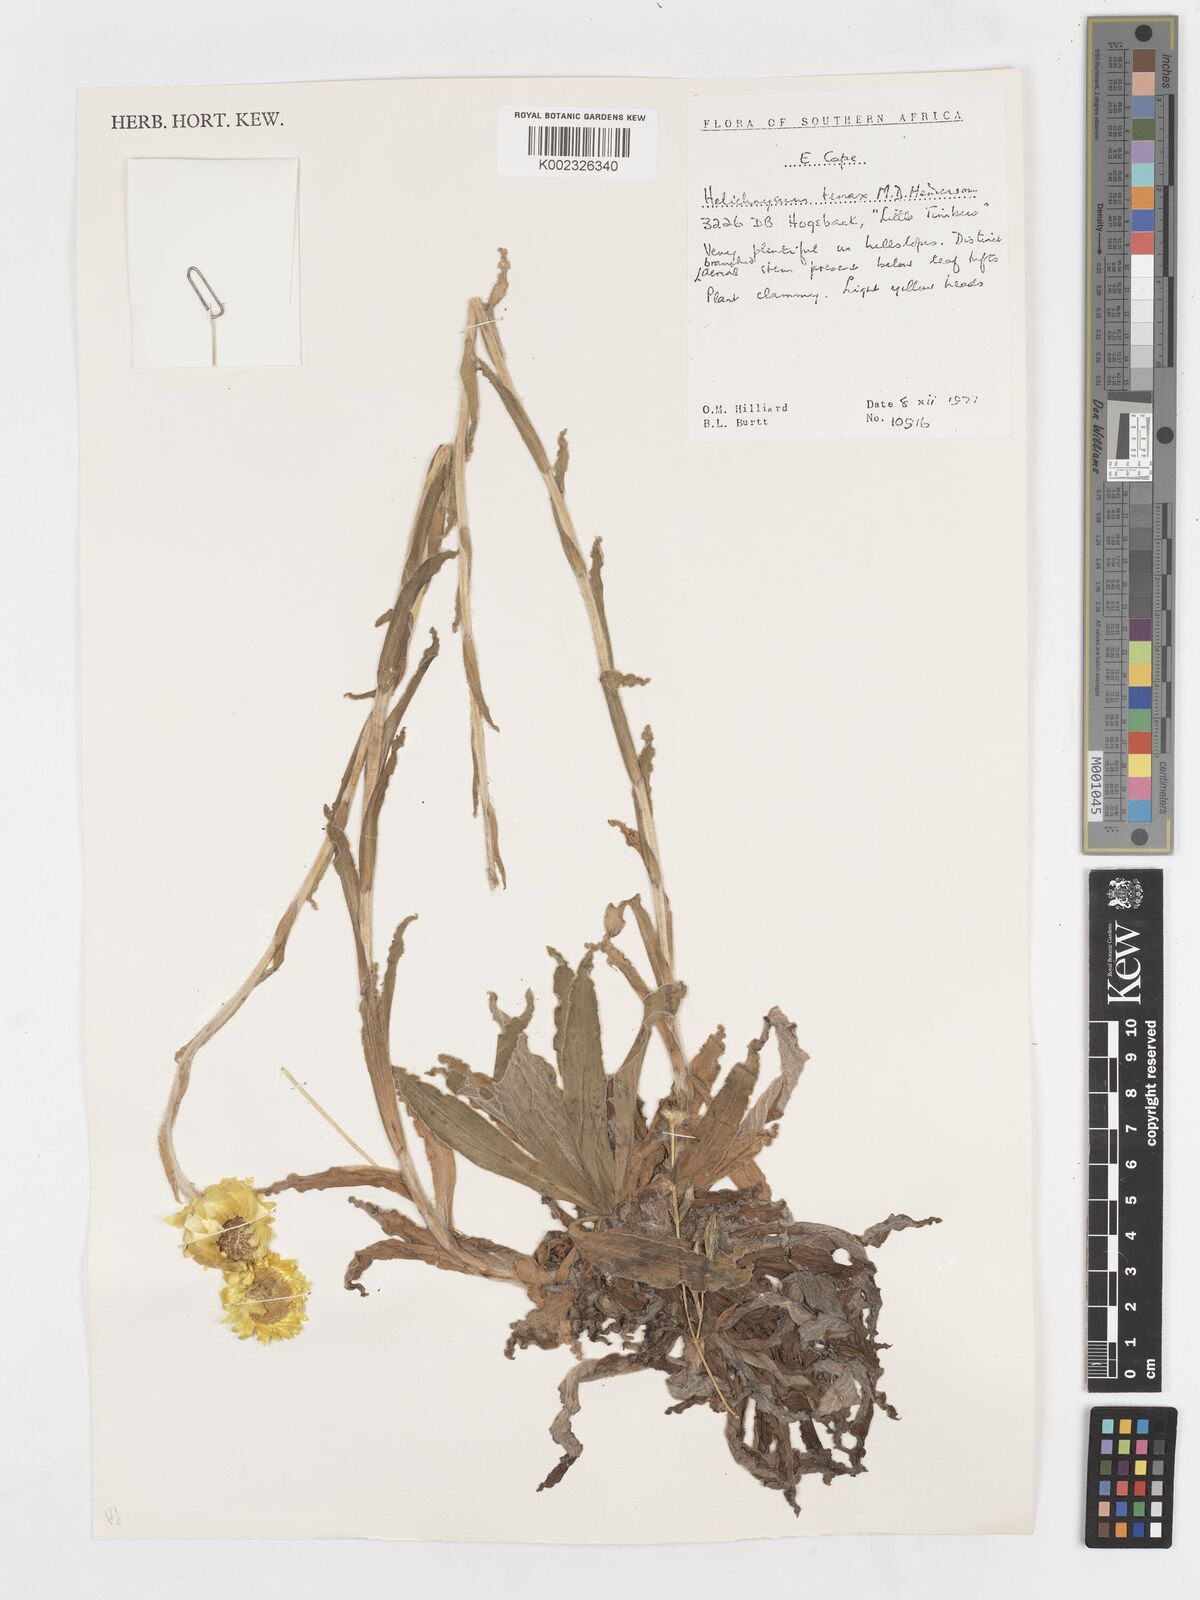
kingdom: Plantae
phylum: Tracheophyta
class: Magnoliopsida
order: Asterales
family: Asteraceae
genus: Helichrysum
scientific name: Helichrysum tenax
